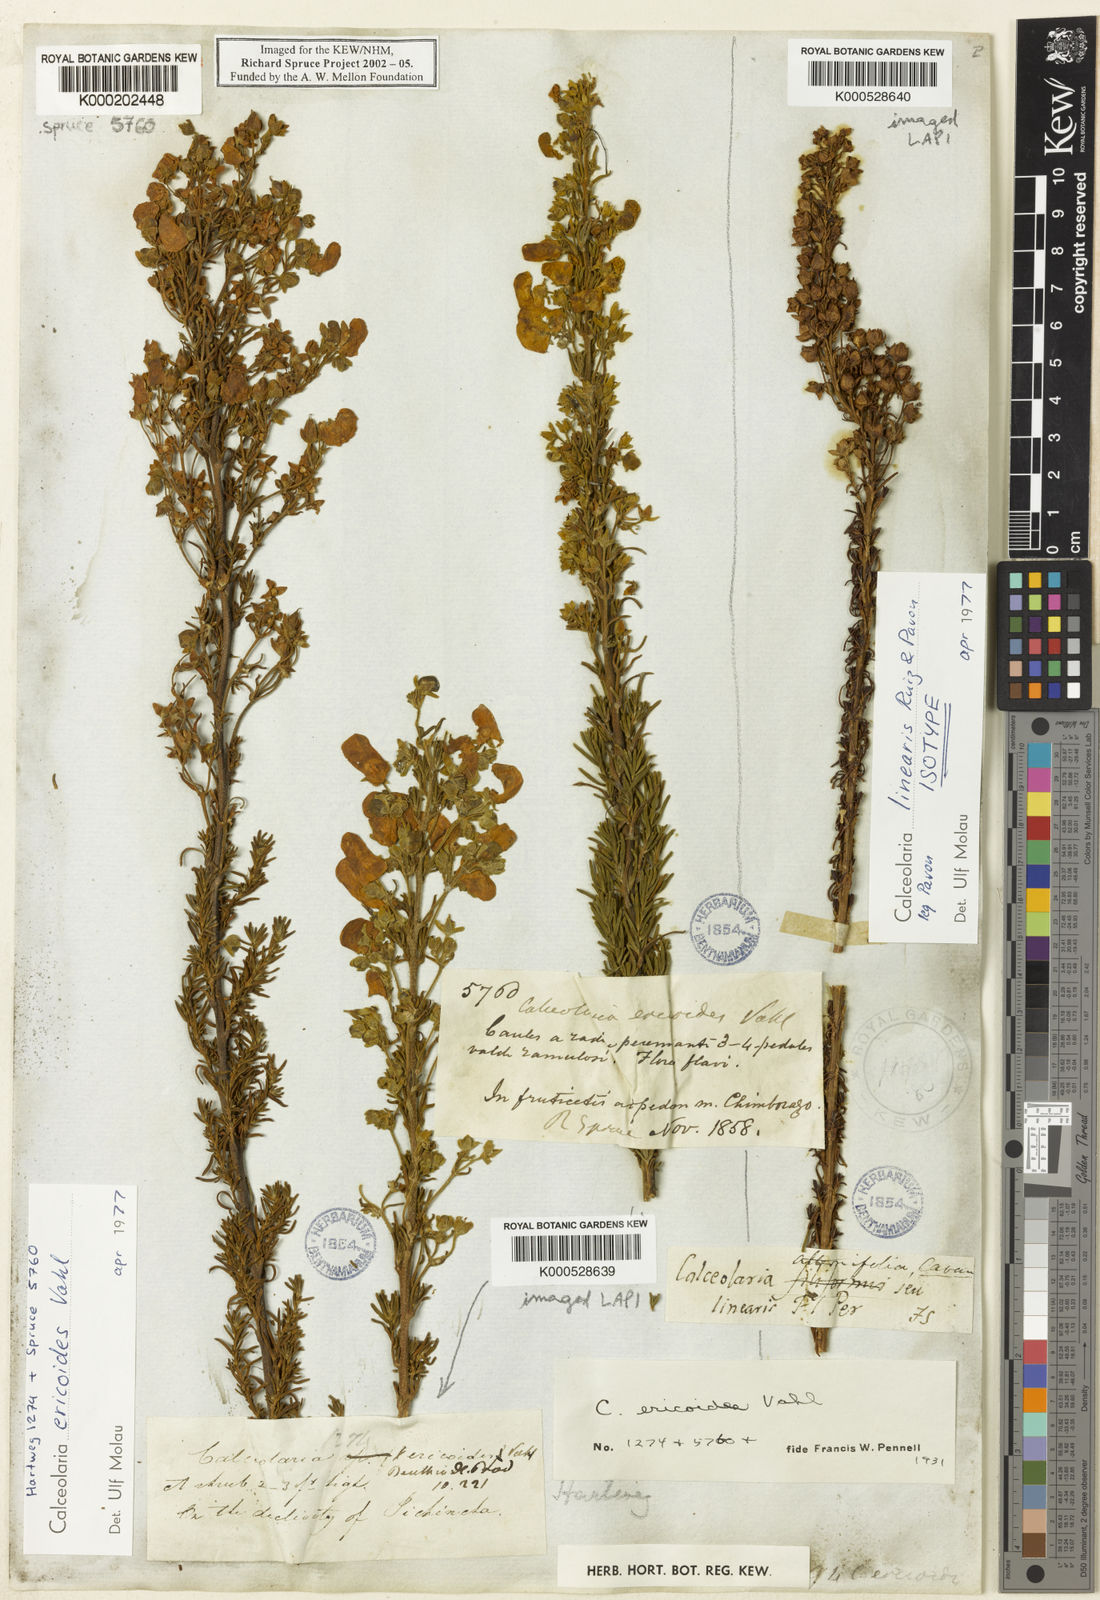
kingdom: Plantae
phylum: Tracheophyta
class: Magnoliopsida
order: Lamiales
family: Calceolariaceae
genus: Calceolaria
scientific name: Calceolaria linearis
